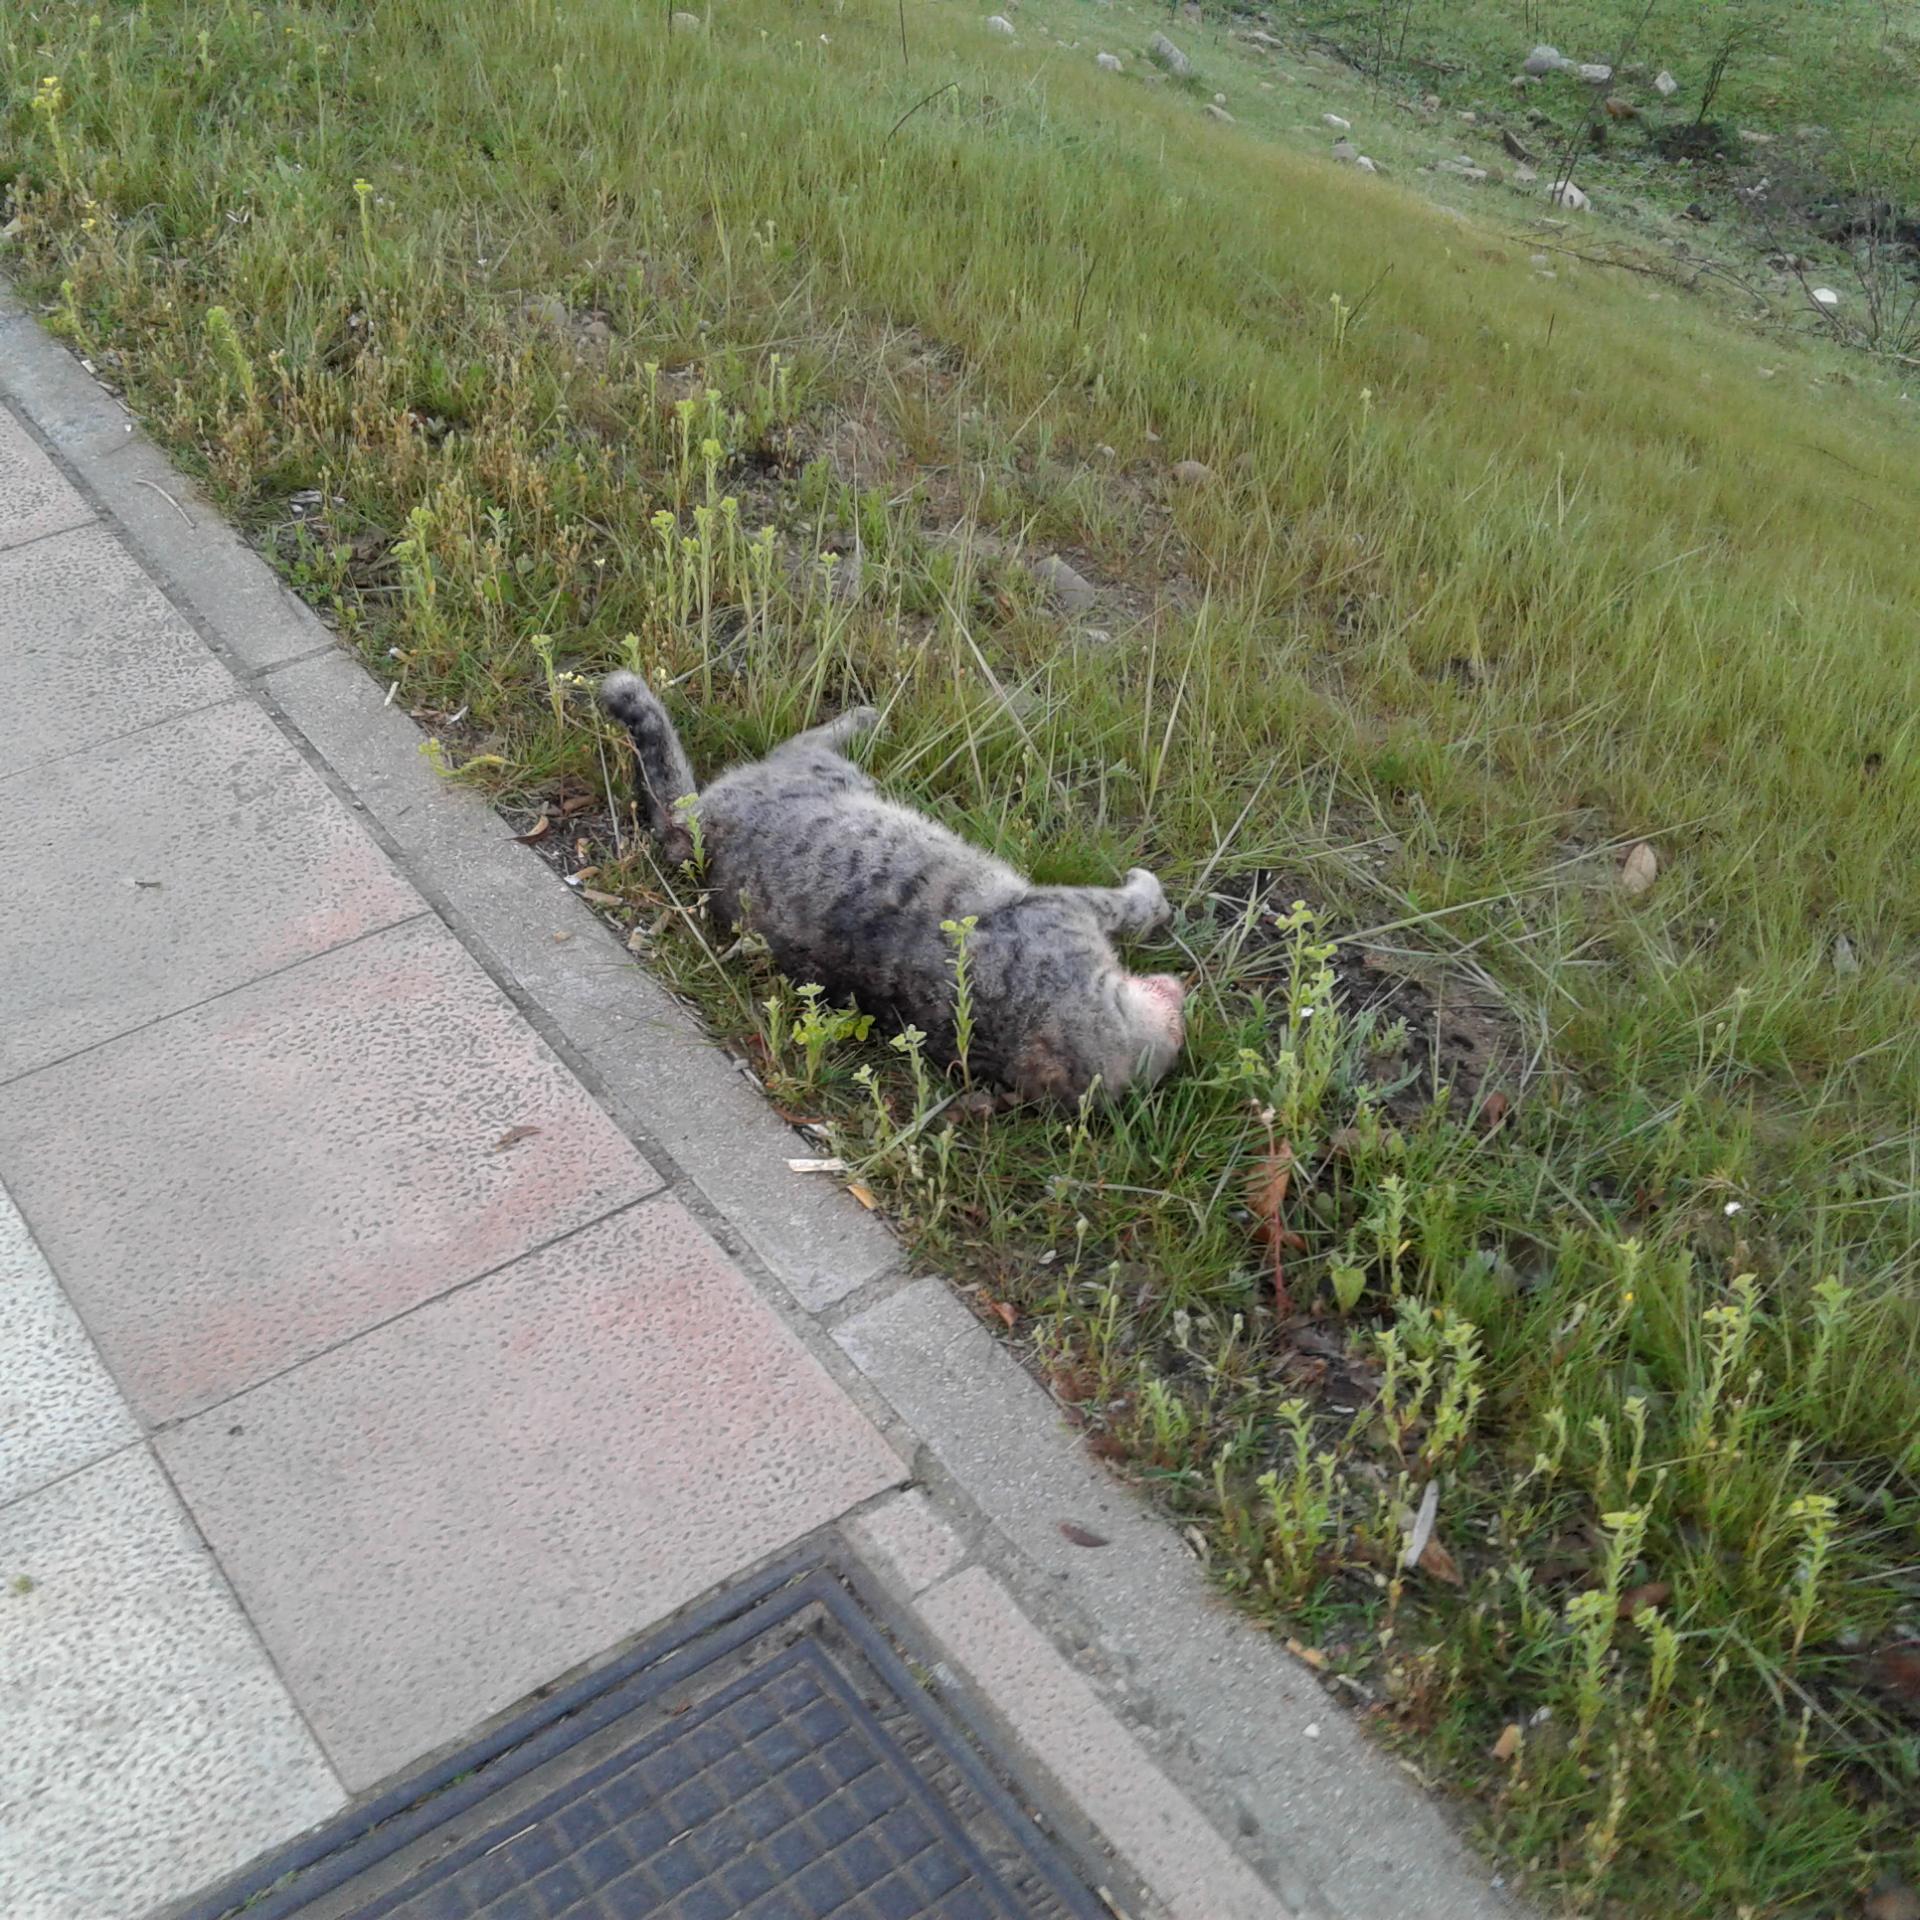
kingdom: Animalia
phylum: Chordata
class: Mammalia
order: Carnivora
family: Felidae
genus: Felis
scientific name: Felis catus
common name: Domestic cat
